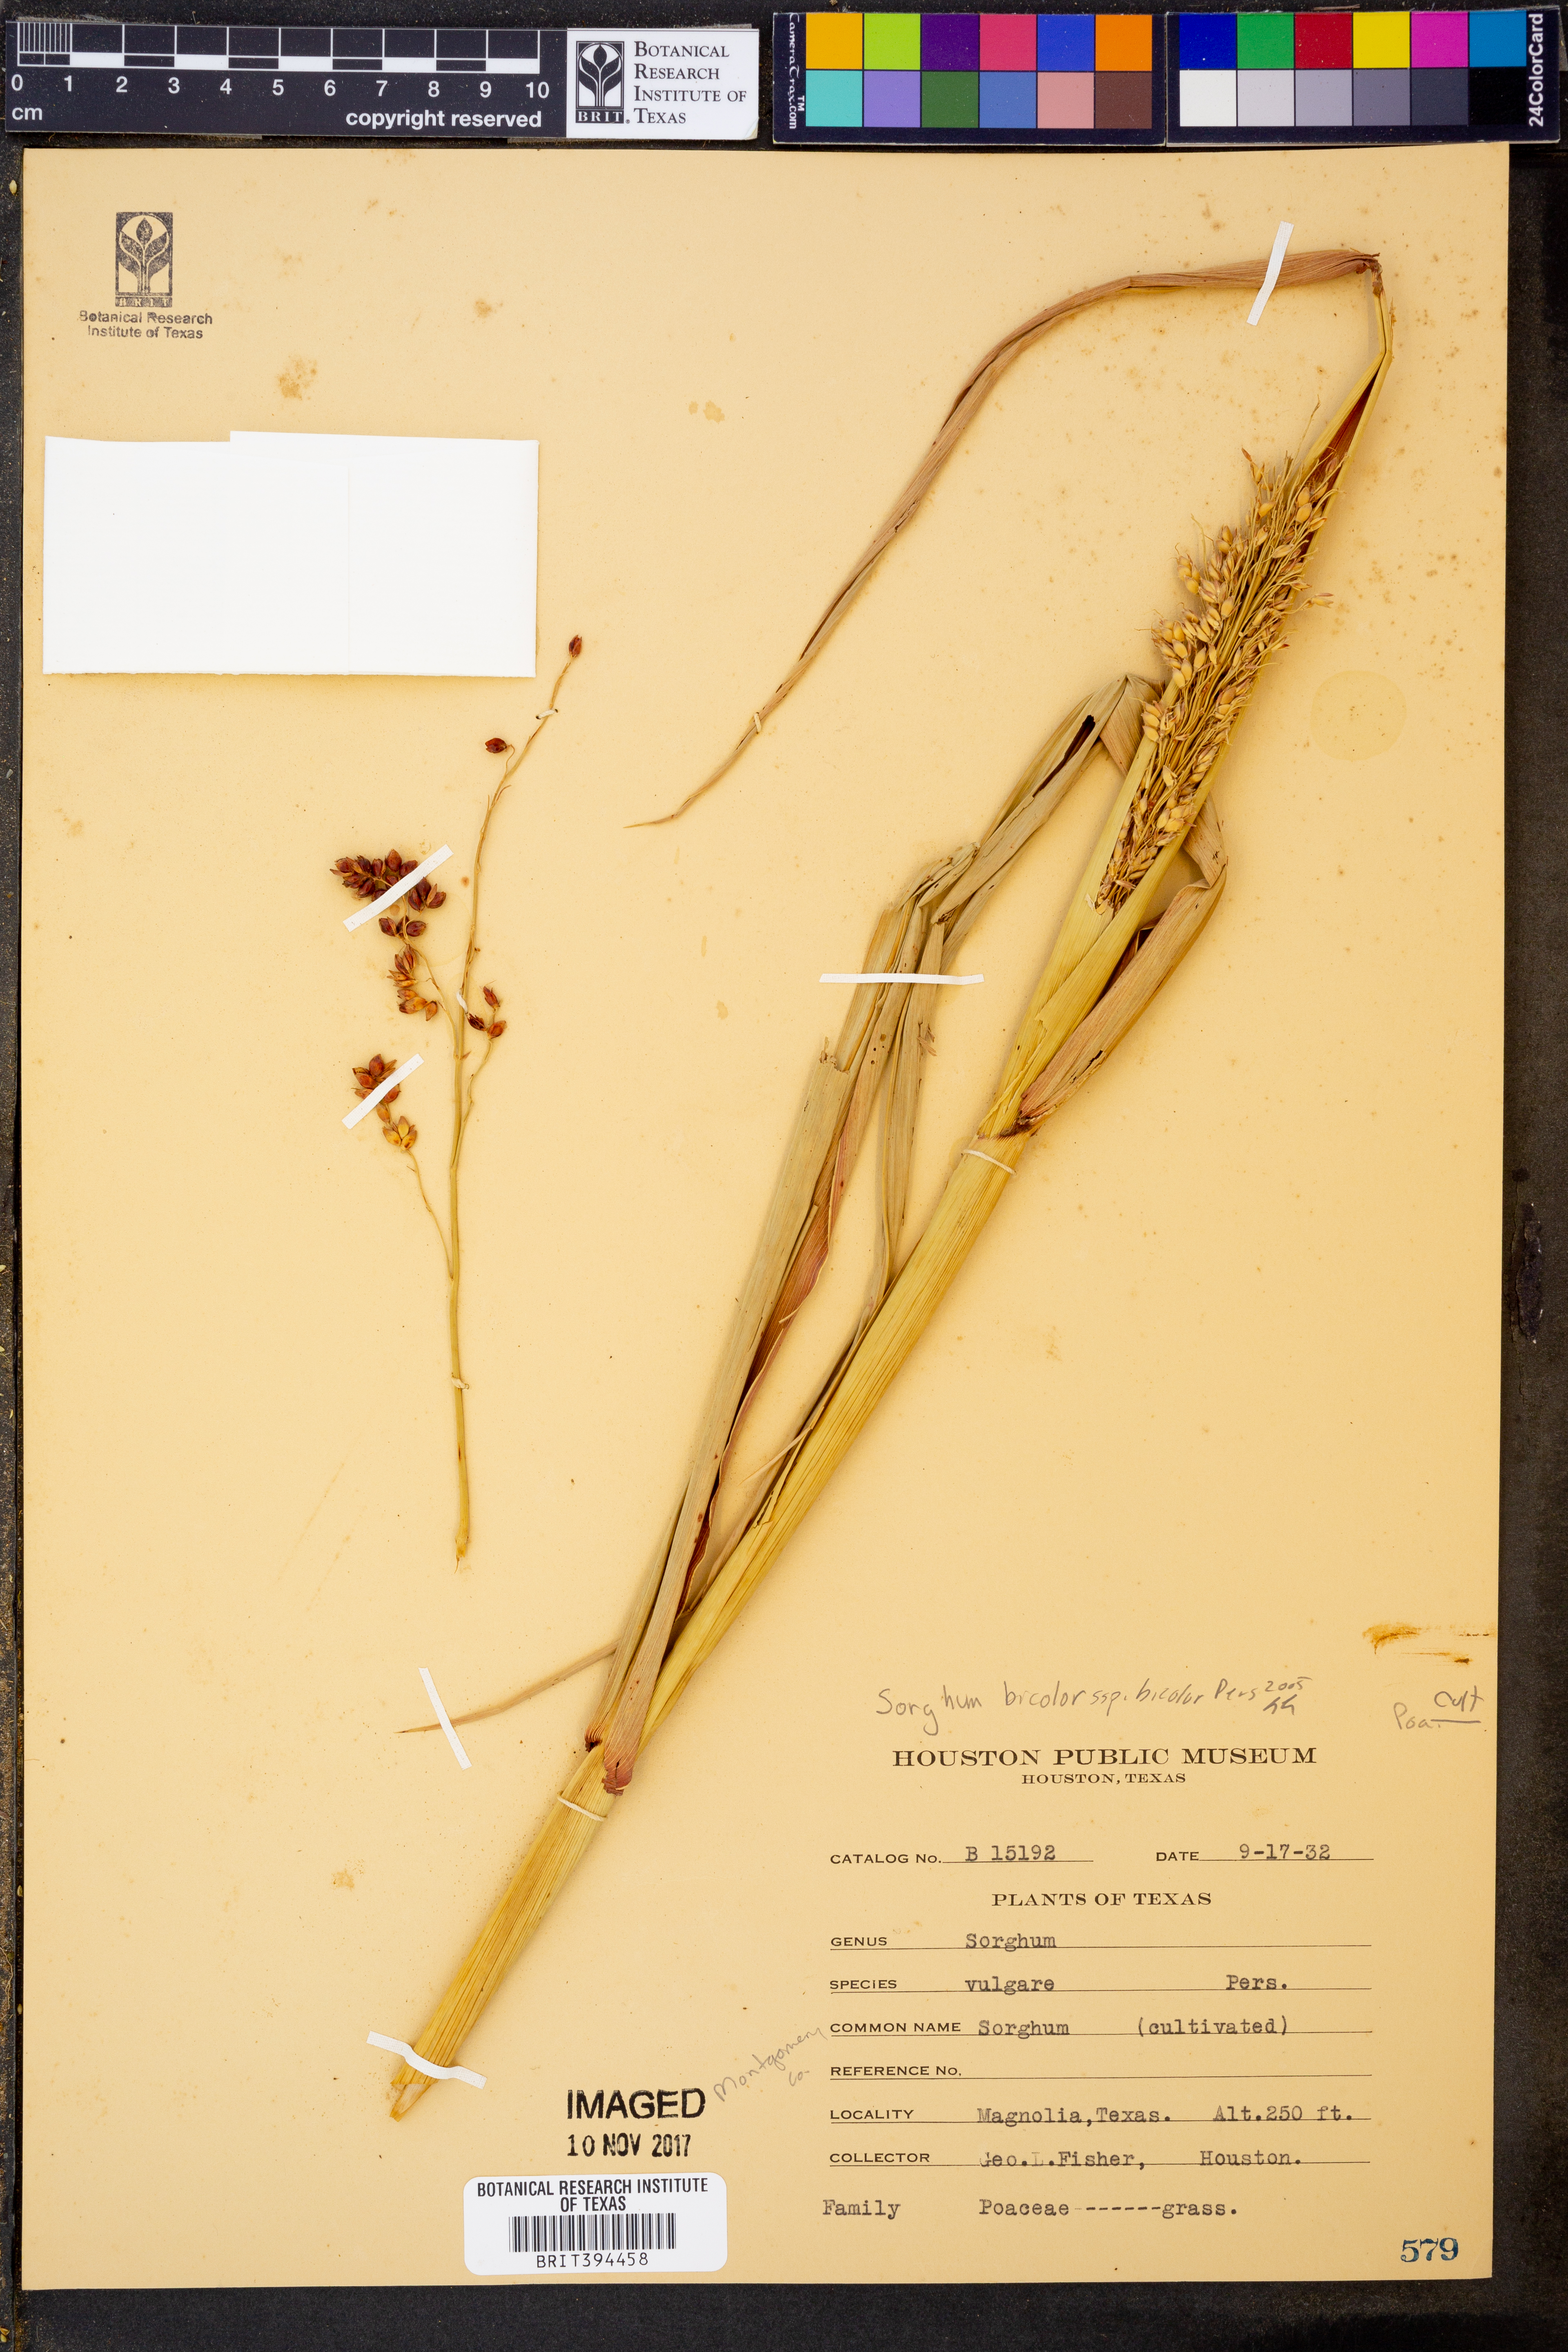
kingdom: Plantae
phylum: Tracheophyta
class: Liliopsida
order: Poales
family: Poaceae
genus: Sorghum
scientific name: Sorghum bicolor
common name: Sorghum
